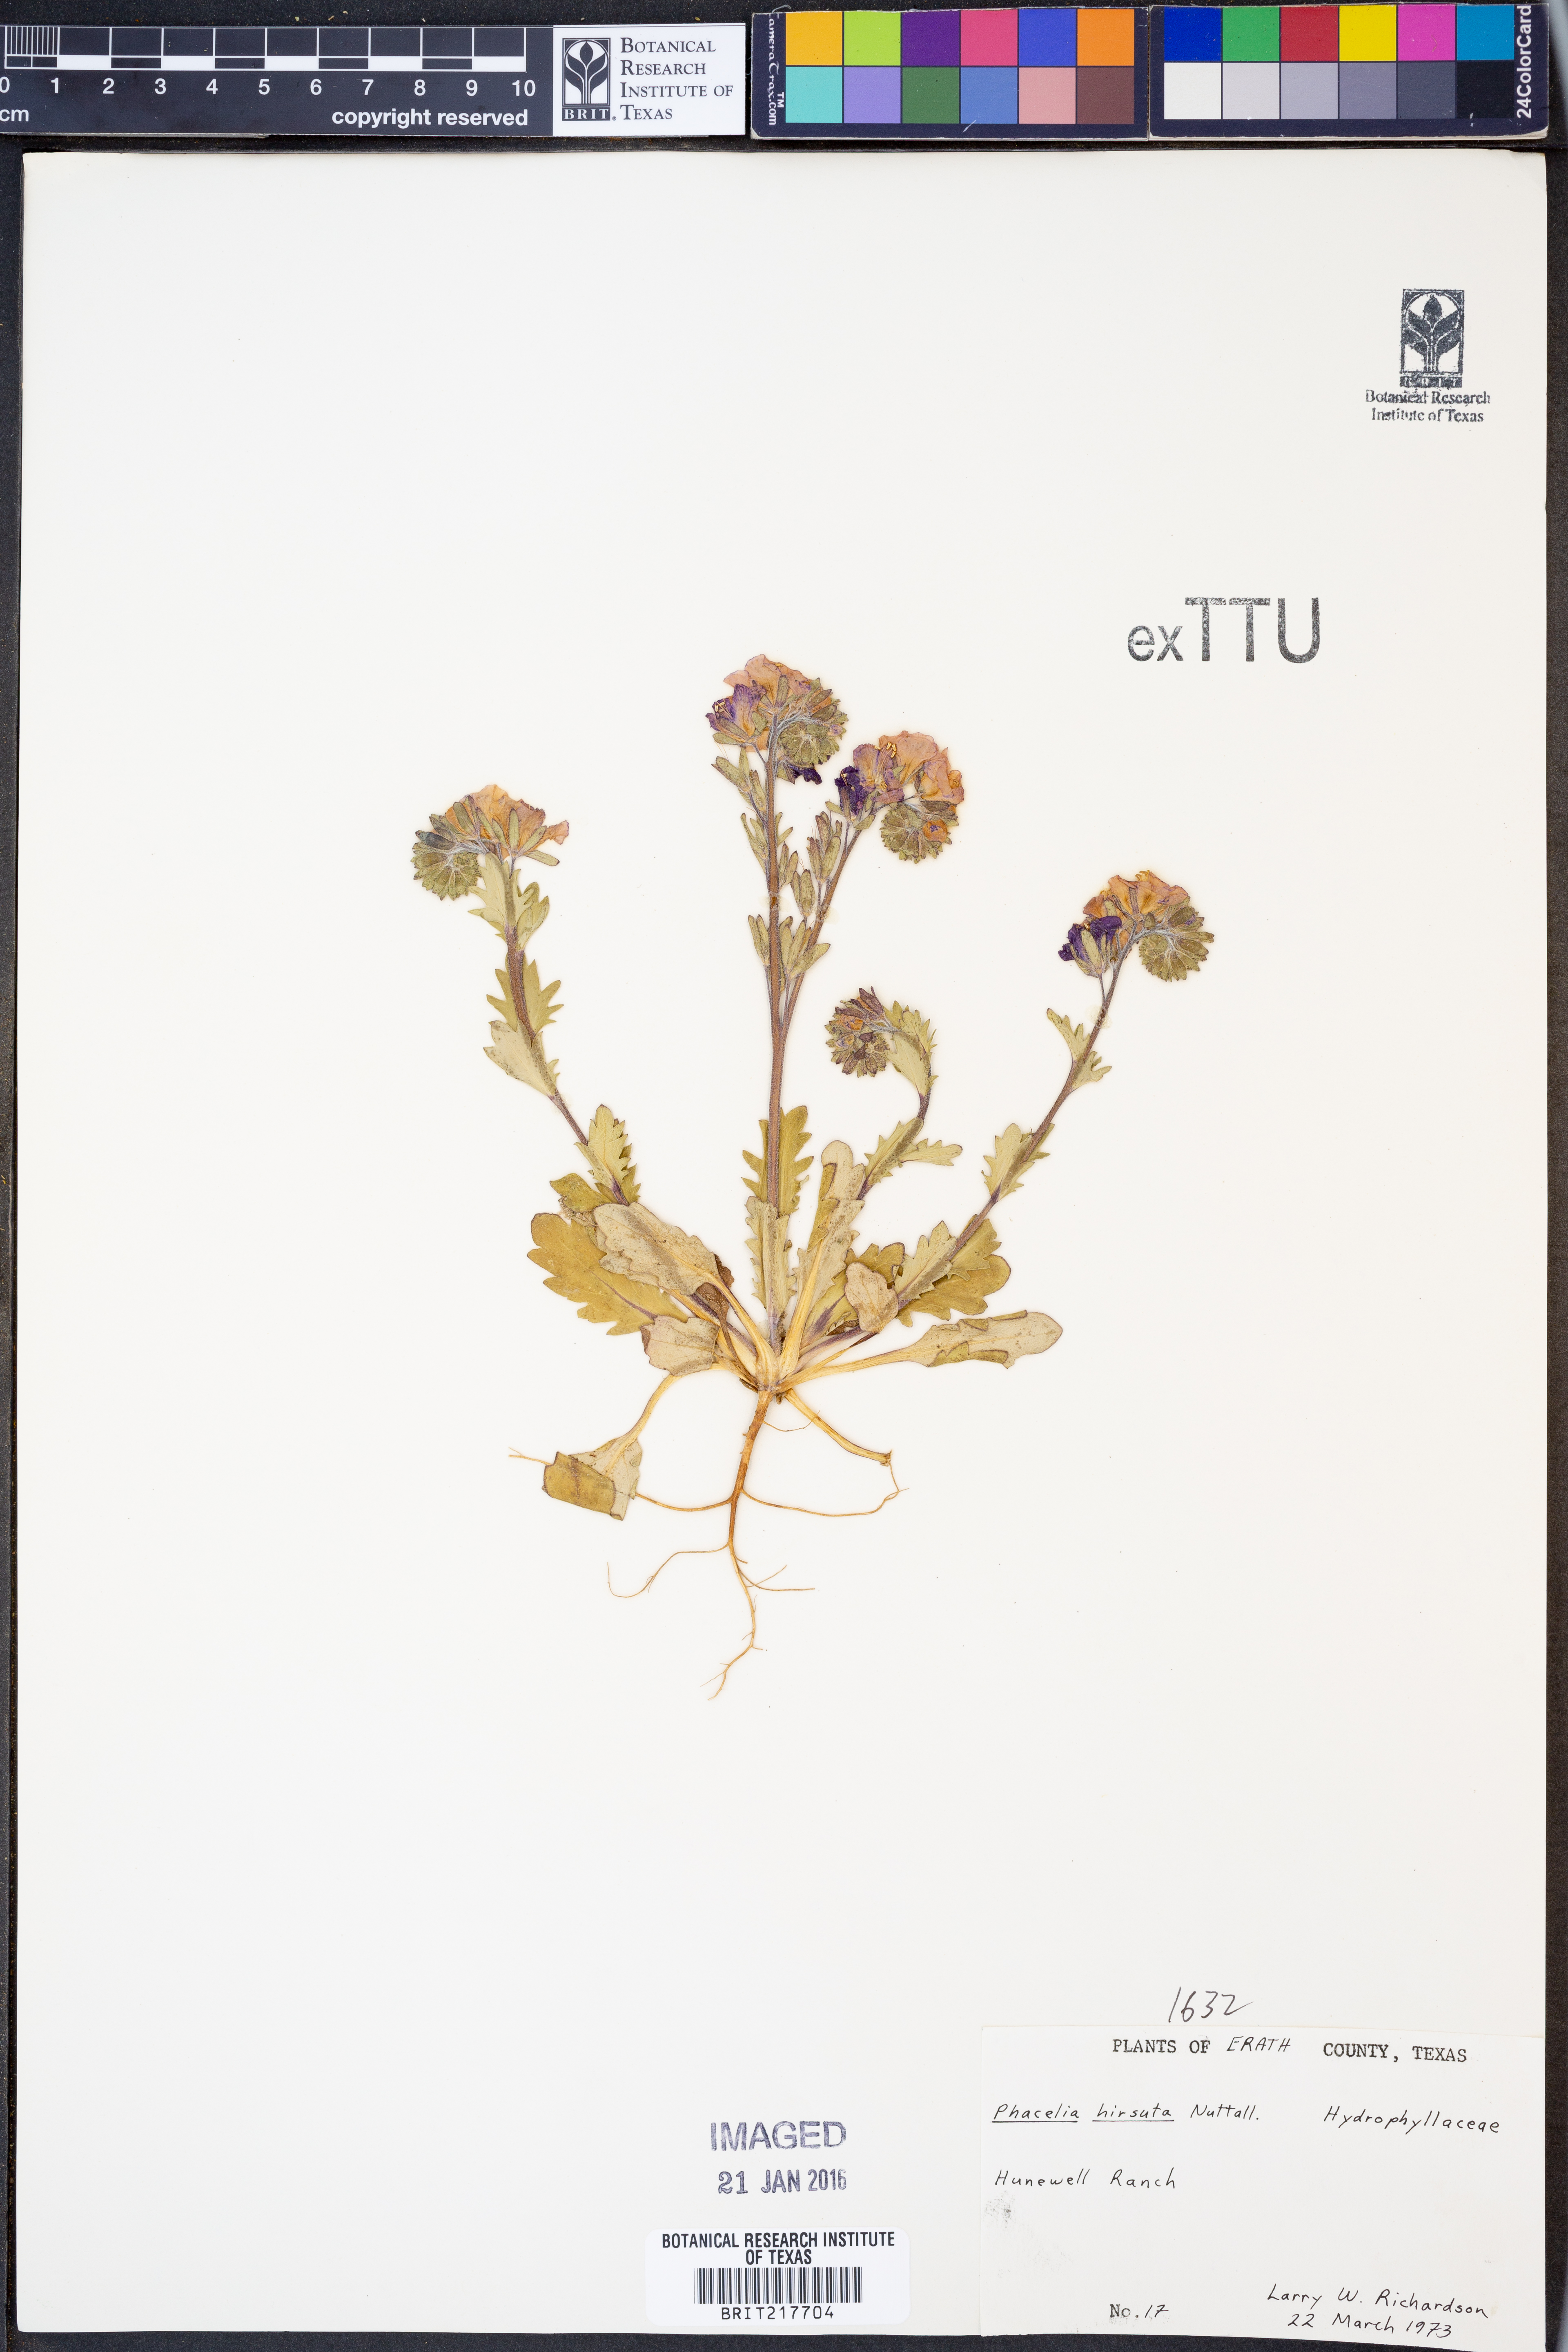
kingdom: Plantae
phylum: Tracheophyta
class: Magnoliopsida
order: Boraginales
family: Hydrophyllaceae
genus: Phacelia
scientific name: Phacelia hirsuta
